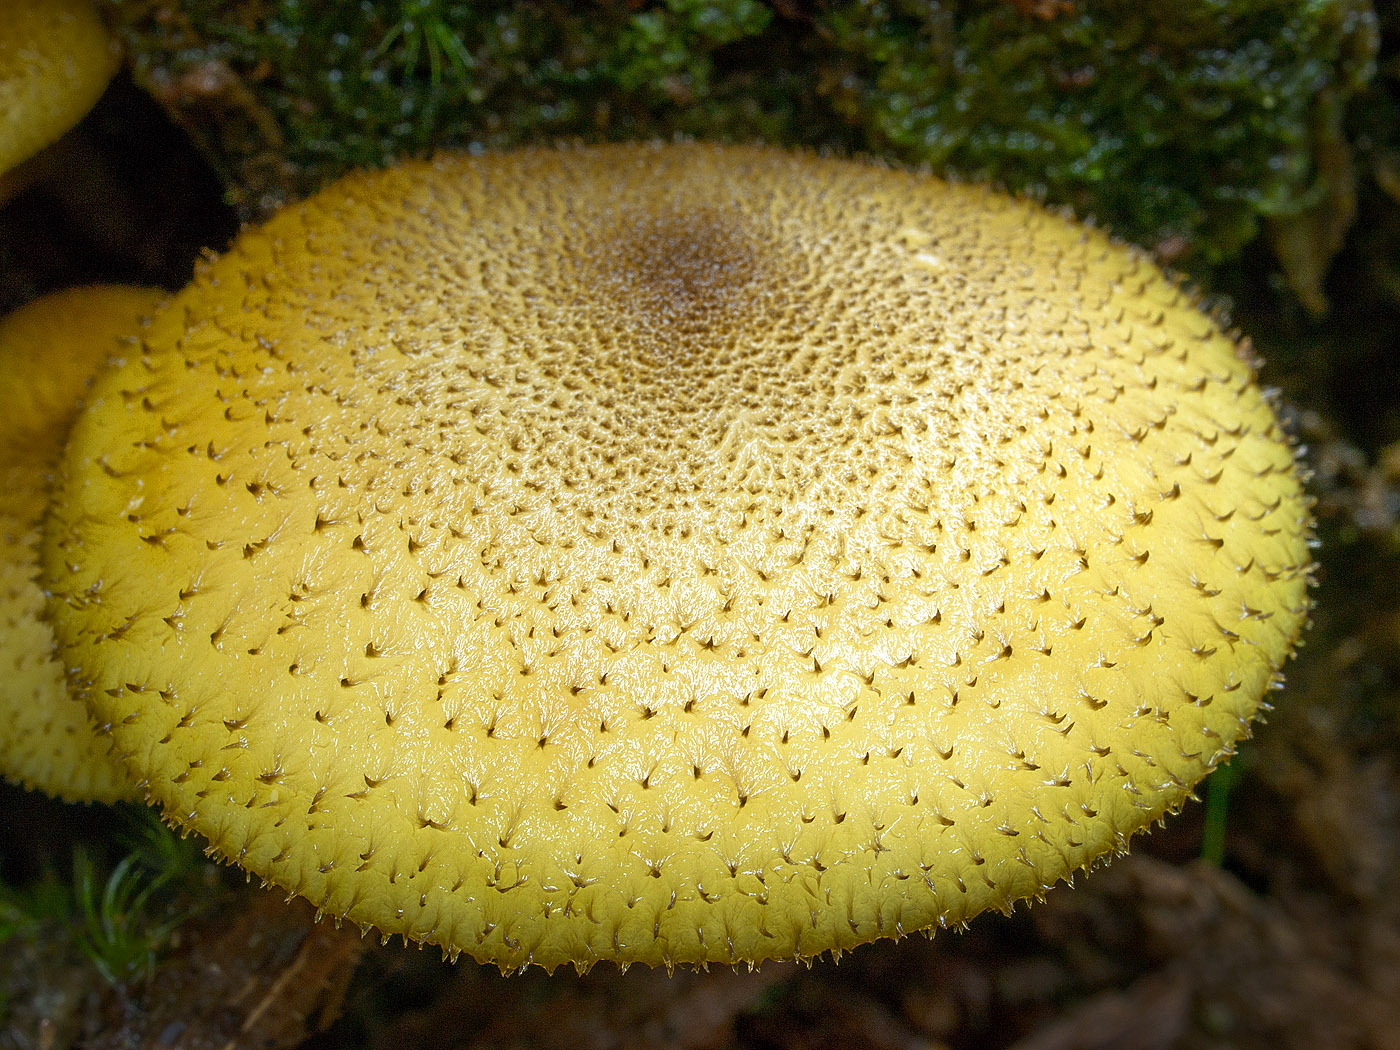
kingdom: Fungi
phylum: Basidiomycota
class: Agaricomycetes
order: Agaricales
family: Tricholomataceae
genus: Tricholomopsis
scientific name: Tricholomopsis decora
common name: sortskællet væbnerhat
